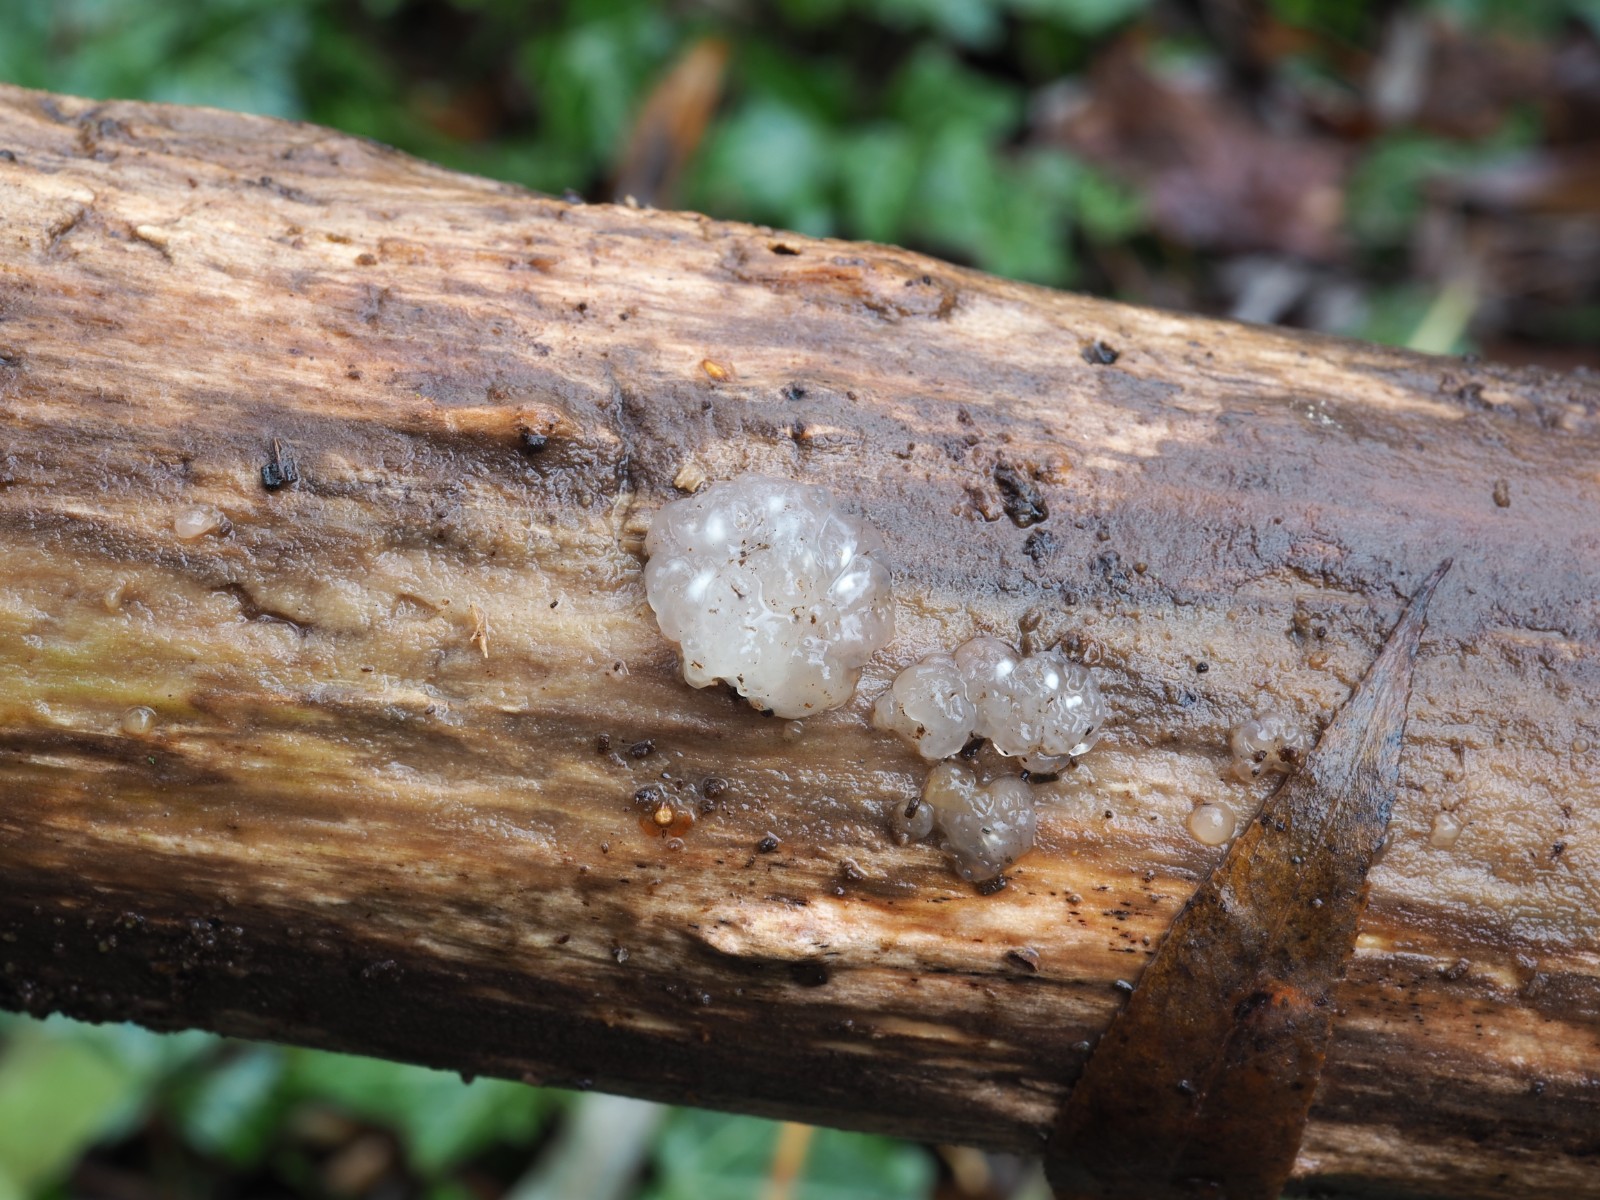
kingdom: Fungi
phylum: Basidiomycota
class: Agaricomycetes
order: Auriculariales
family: Hyaloriaceae
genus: Myxarium
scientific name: Myxarium nucleatum
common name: klar bævretop
